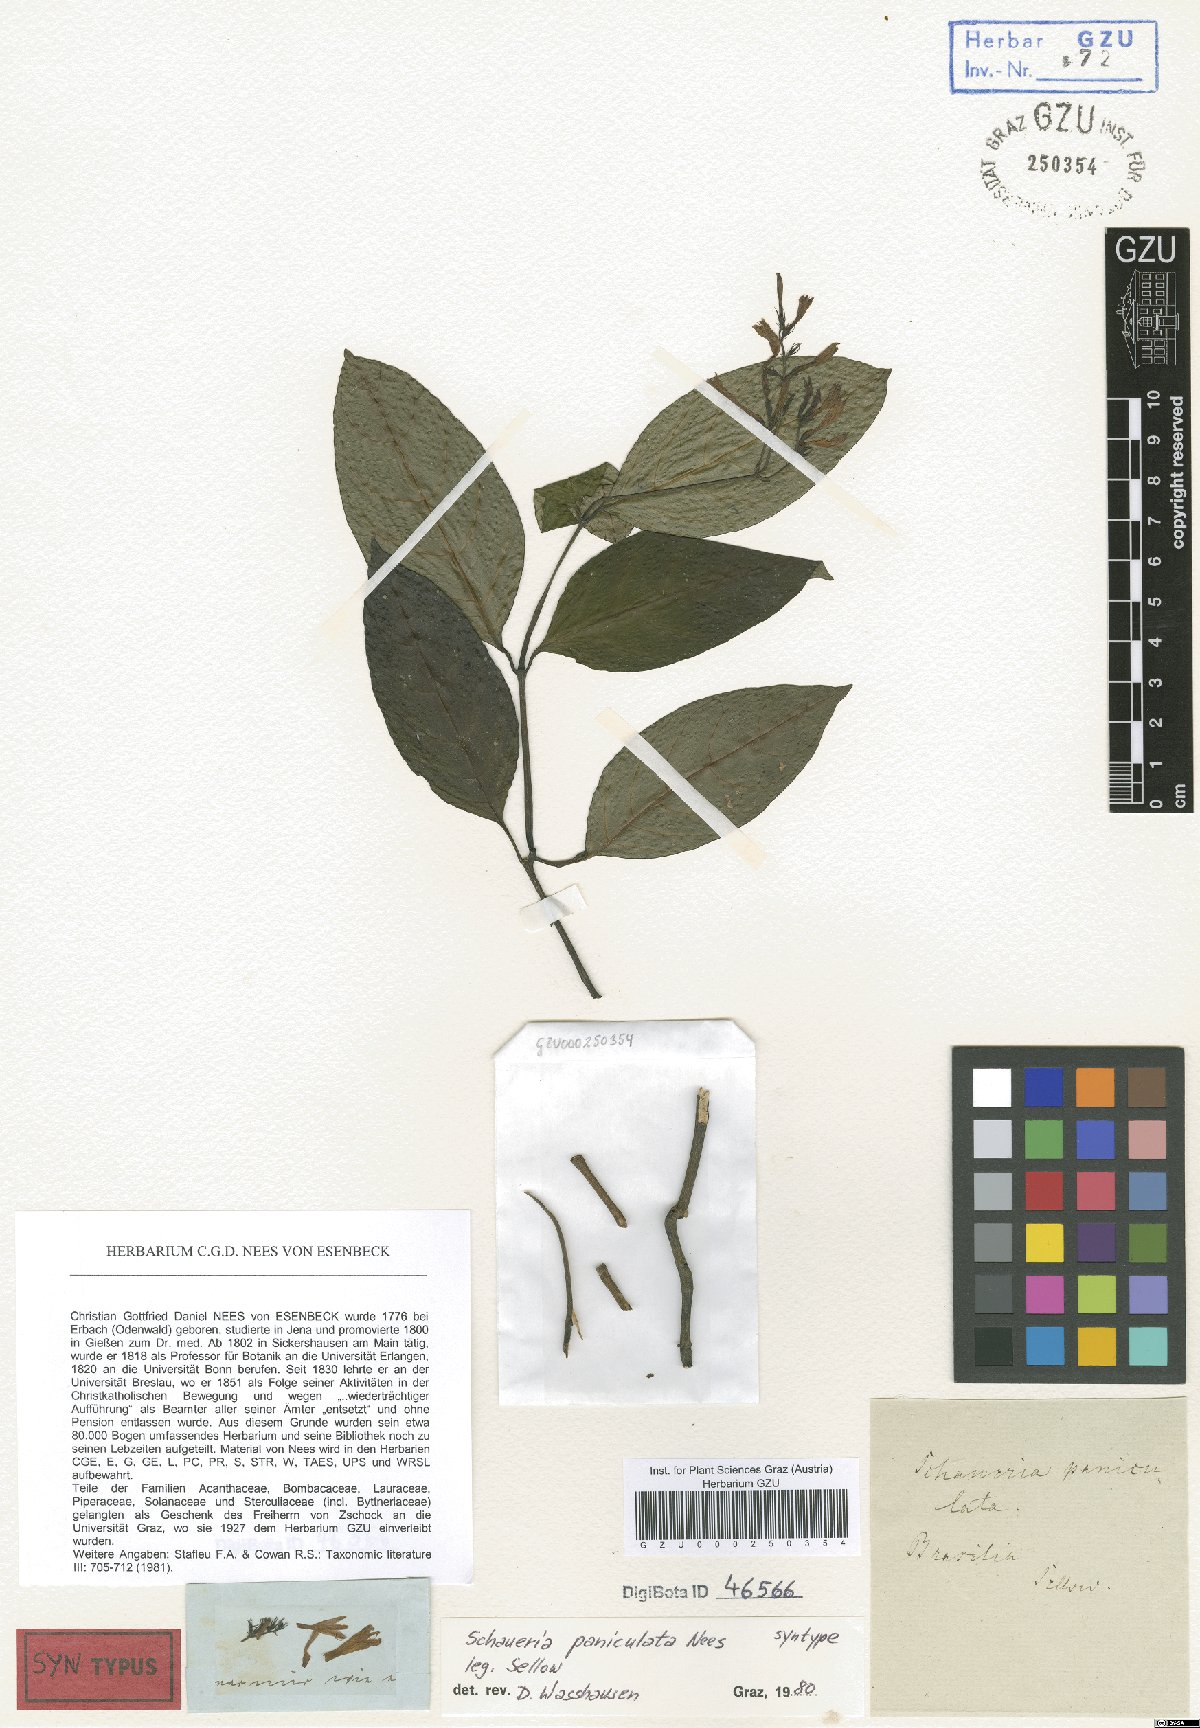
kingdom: Plantae
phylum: Tracheophyta
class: Magnoliopsida
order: Lamiales
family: Acanthaceae
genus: Pseuderanthemum
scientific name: Pseuderanthemum riedelianum
